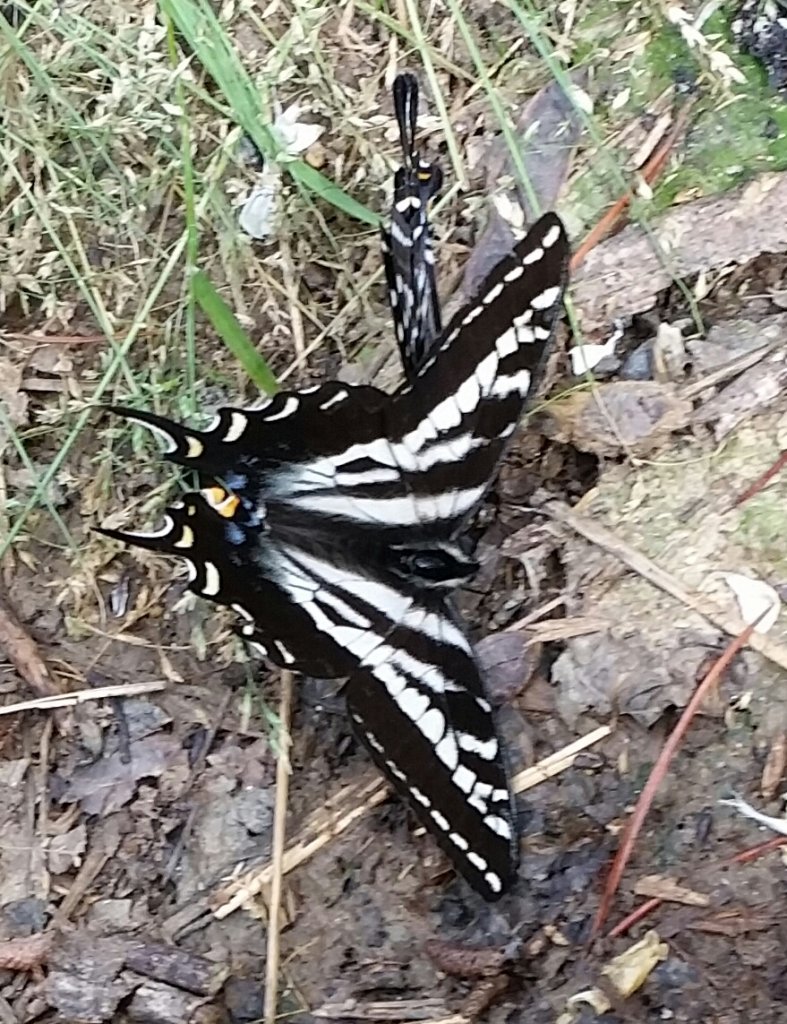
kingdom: Animalia
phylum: Arthropoda
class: Insecta
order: Lepidoptera
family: Papilionidae
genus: Pterourus
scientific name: Pterourus eurymedon
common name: Pale Swallowtail
